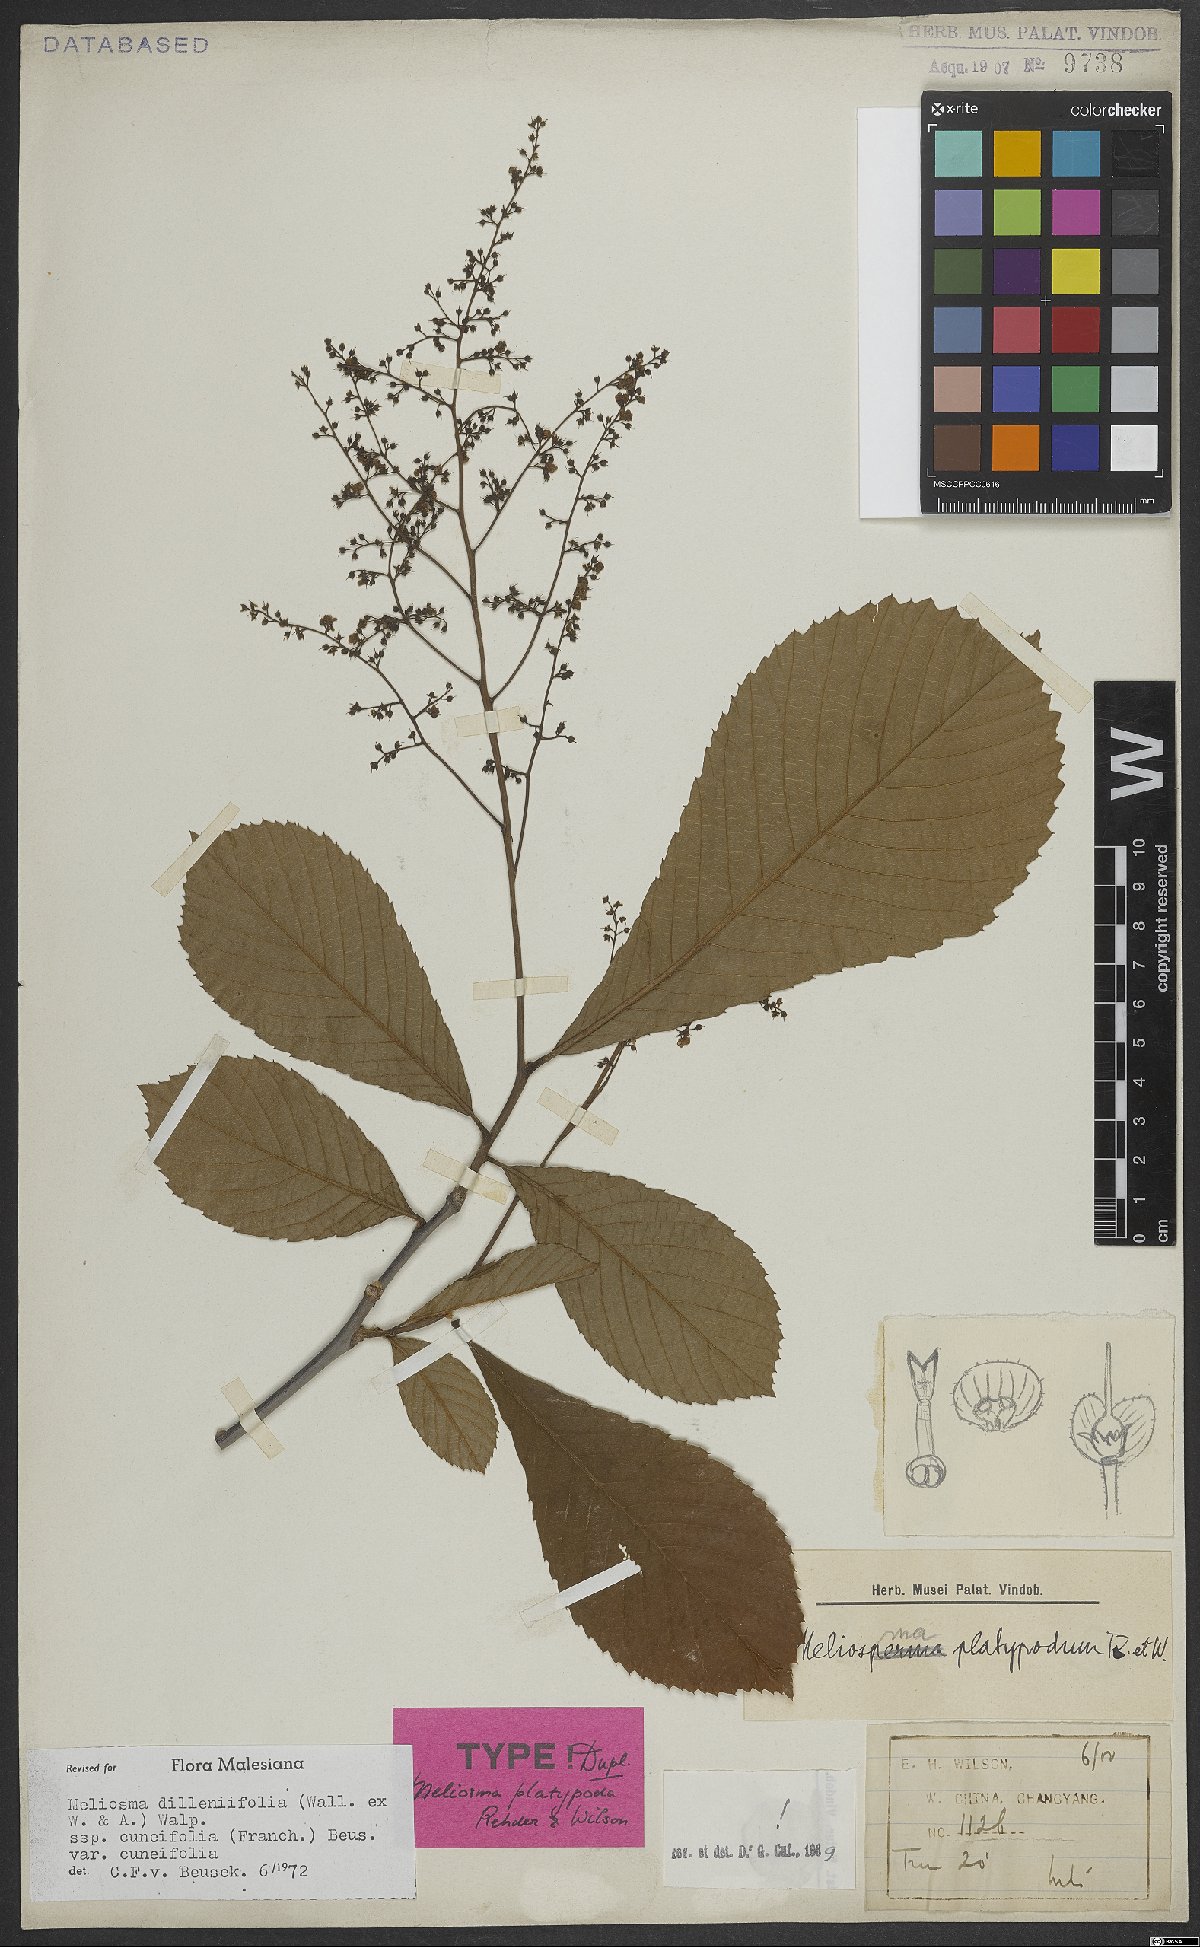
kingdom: Plantae
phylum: Tracheophyta
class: Magnoliopsida
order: Proteales
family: Sabiaceae
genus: Meliosma
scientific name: Meliosma cuneifolia
